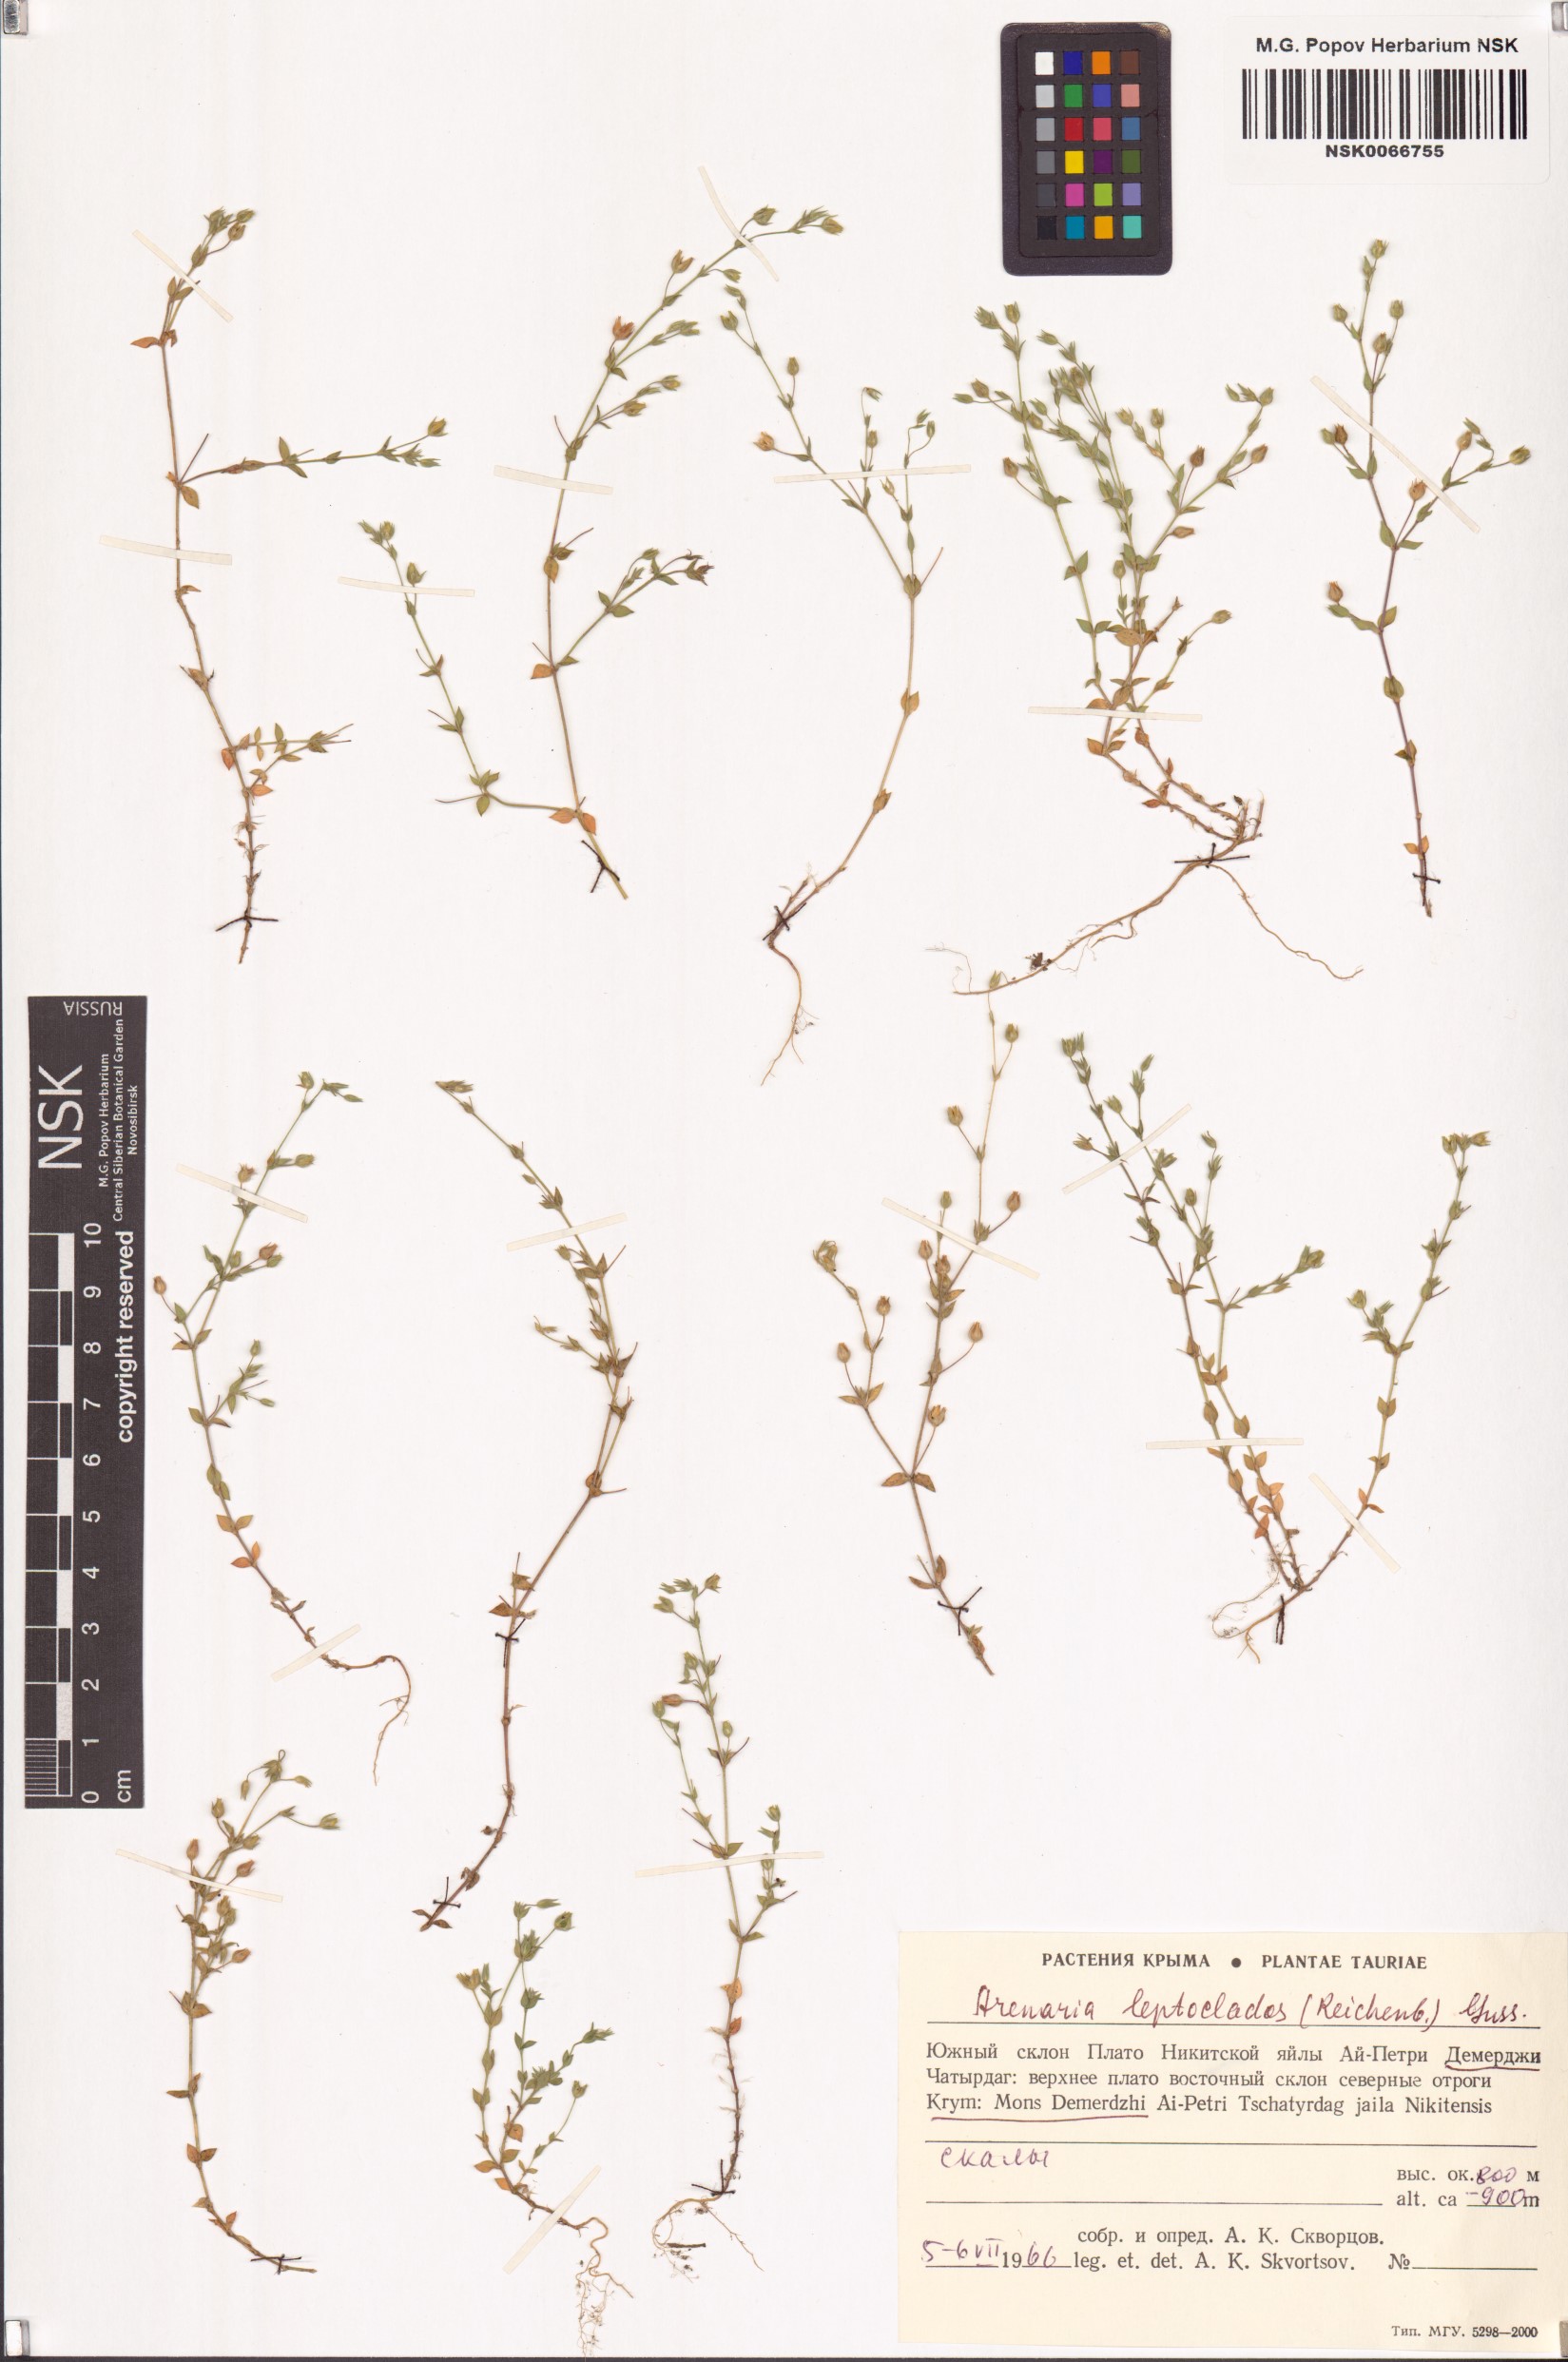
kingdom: Plantae
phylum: Tracheophyta
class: Magnoliopsida
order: Caryophyllales
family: Caryophyllaceae
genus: Arenaria
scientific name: Arenaria leptoclados
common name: Thyme-leaved sandwort
